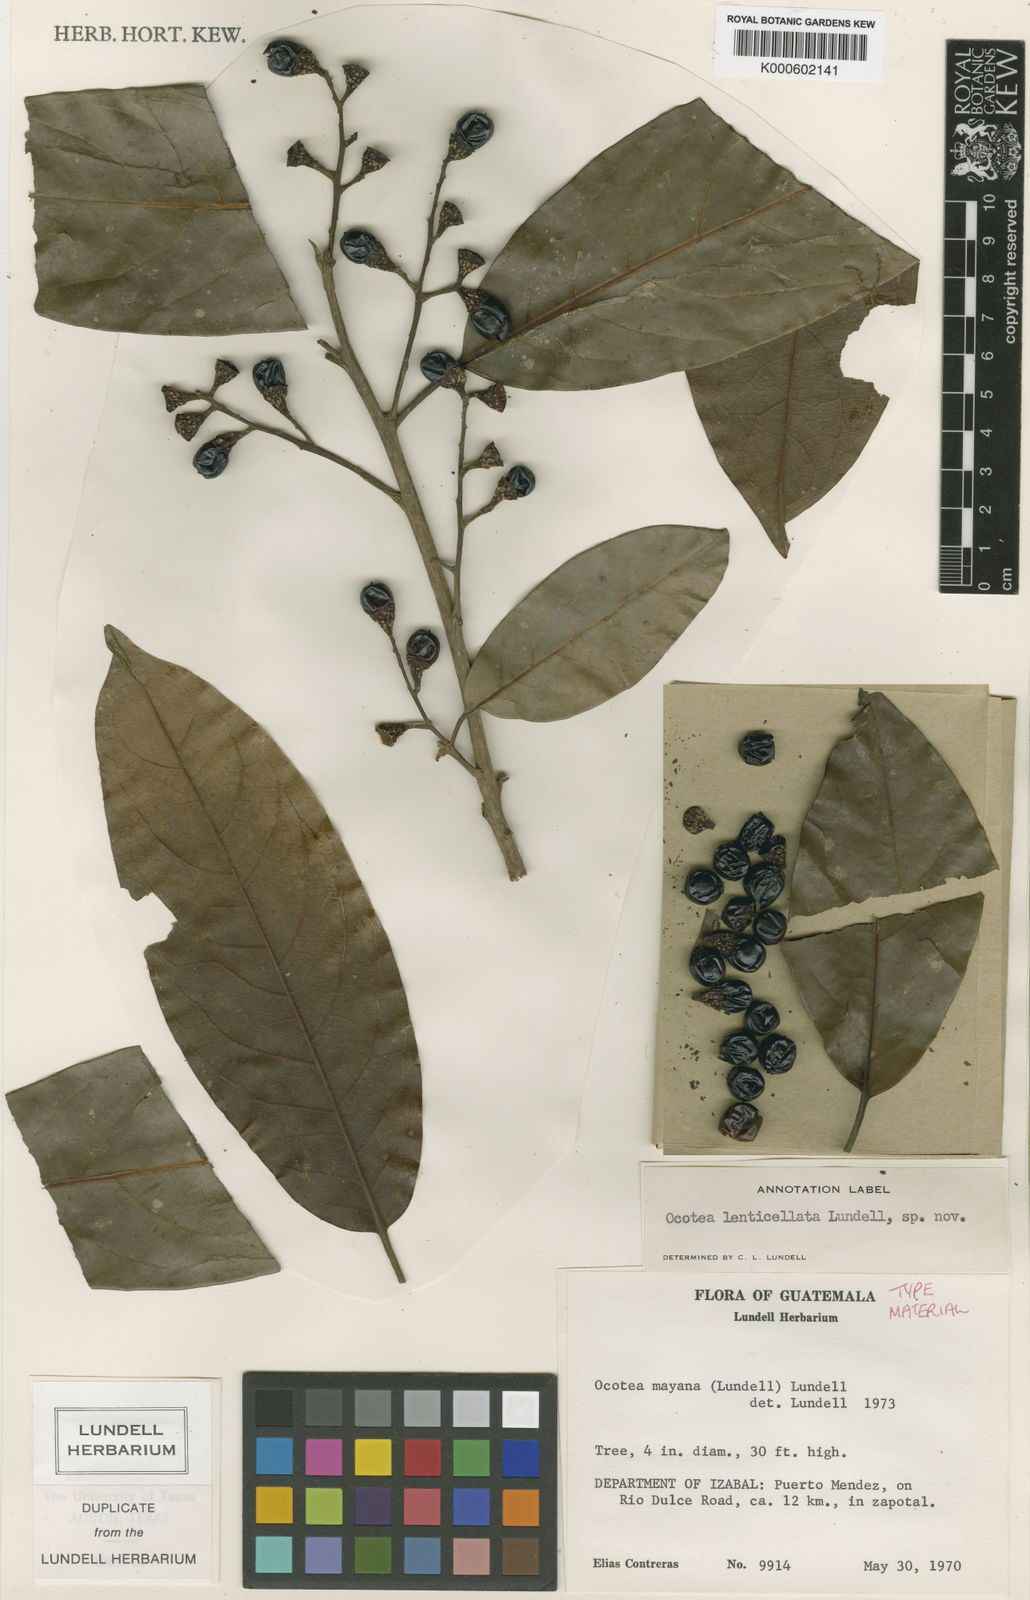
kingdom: Plantae
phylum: Tracheophyta
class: Magnoliopsida
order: Laurales
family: Lauraceae
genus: Ocotea
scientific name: Ocotea leucoxylon
